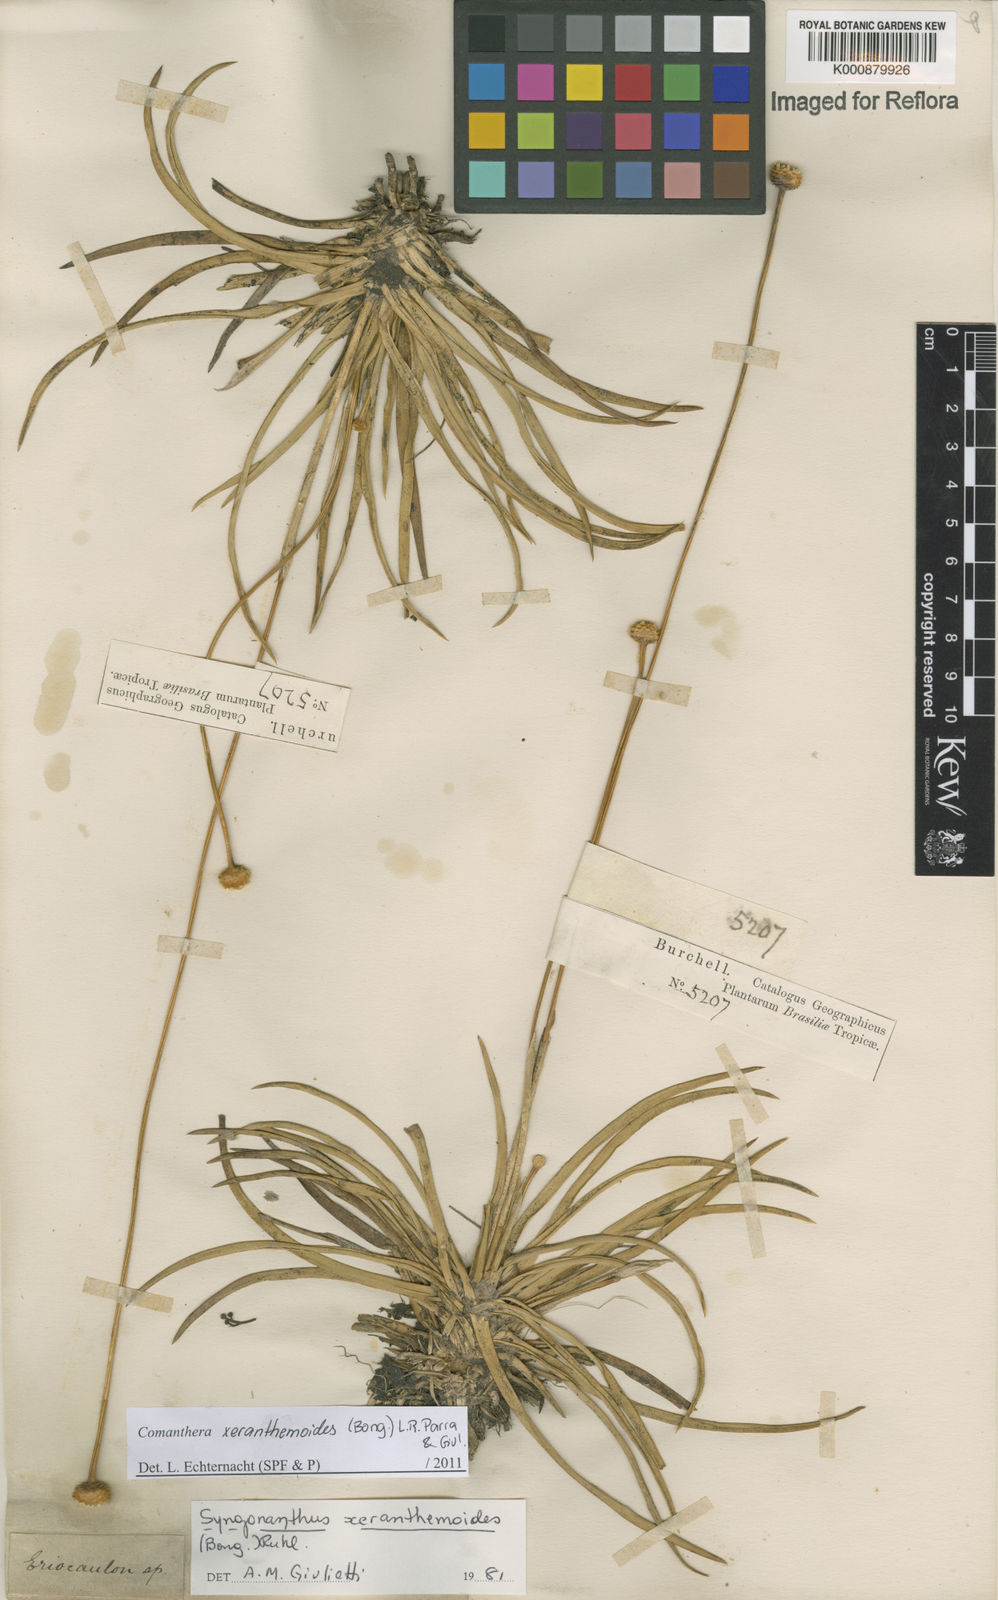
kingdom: Plantae
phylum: Tracheophyta
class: Liliopsida
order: Poales
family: Eriocaulaceae
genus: Comanthera
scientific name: Comanthera xeranthemoides
